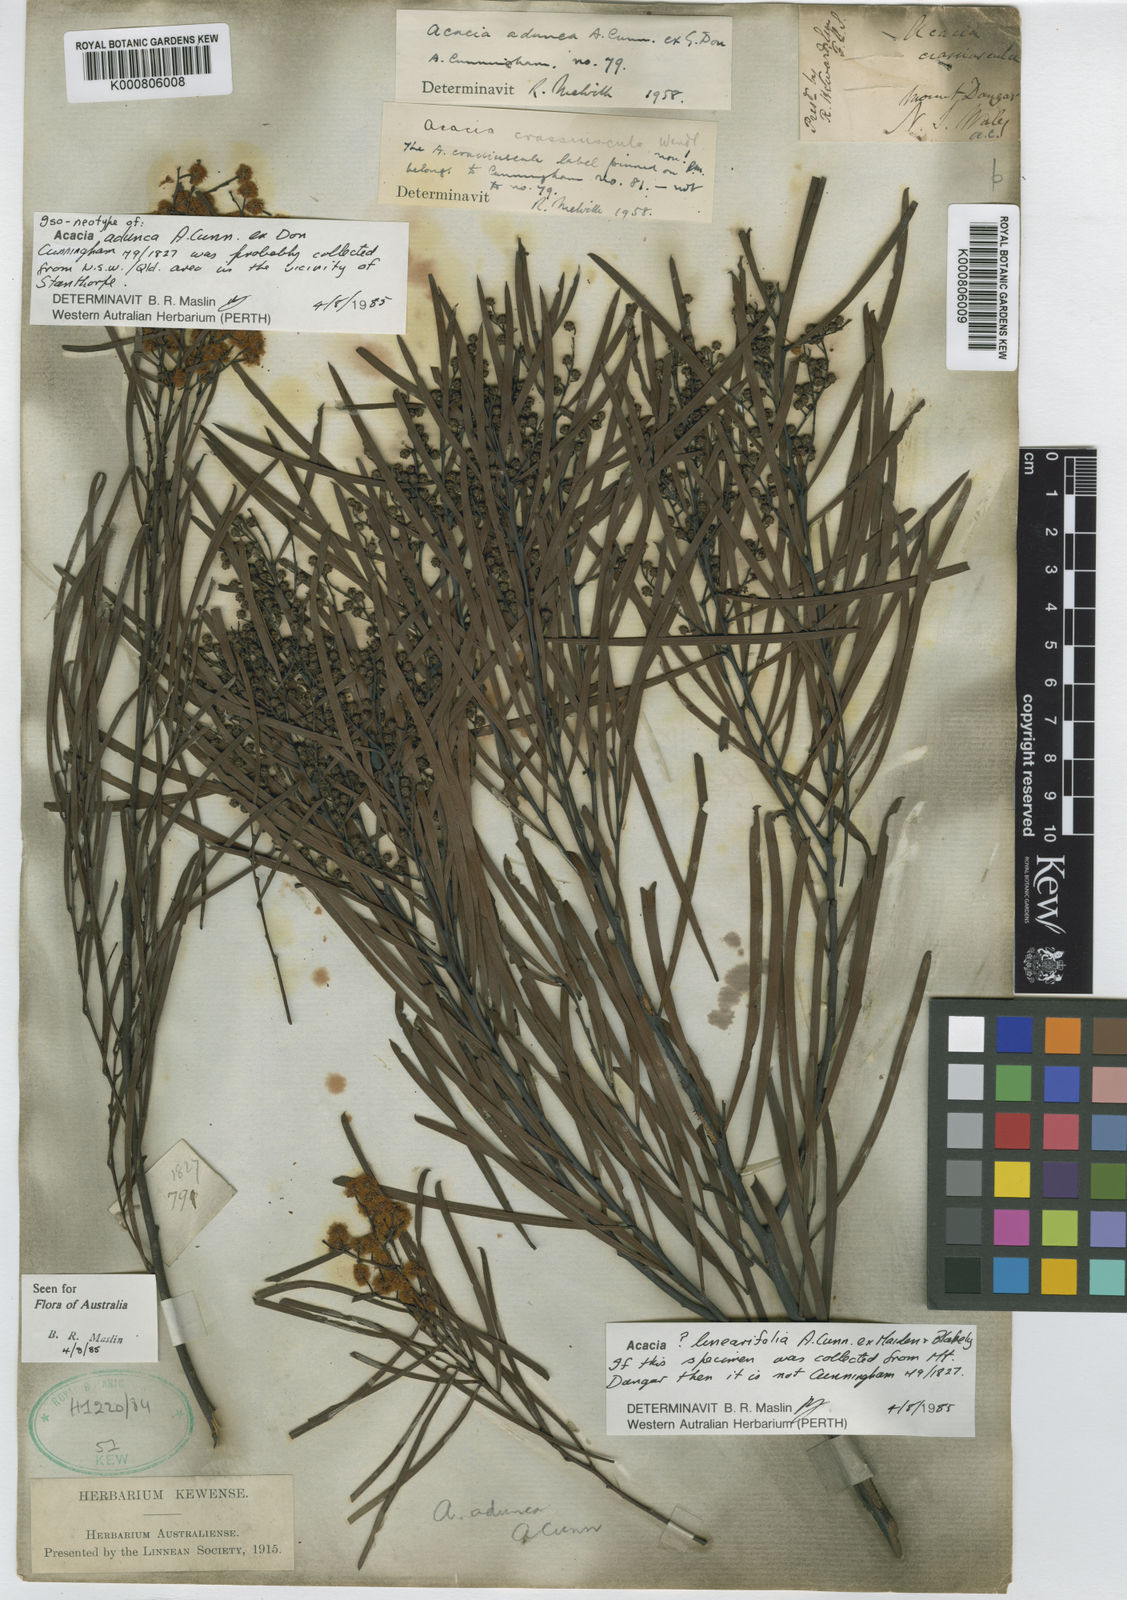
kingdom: Plantae
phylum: Tracheophyta
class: Magnoliopsida
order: Fabales
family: Fabaceae
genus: Acacia
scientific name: Acacia adunca
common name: Wallangarra wattle
